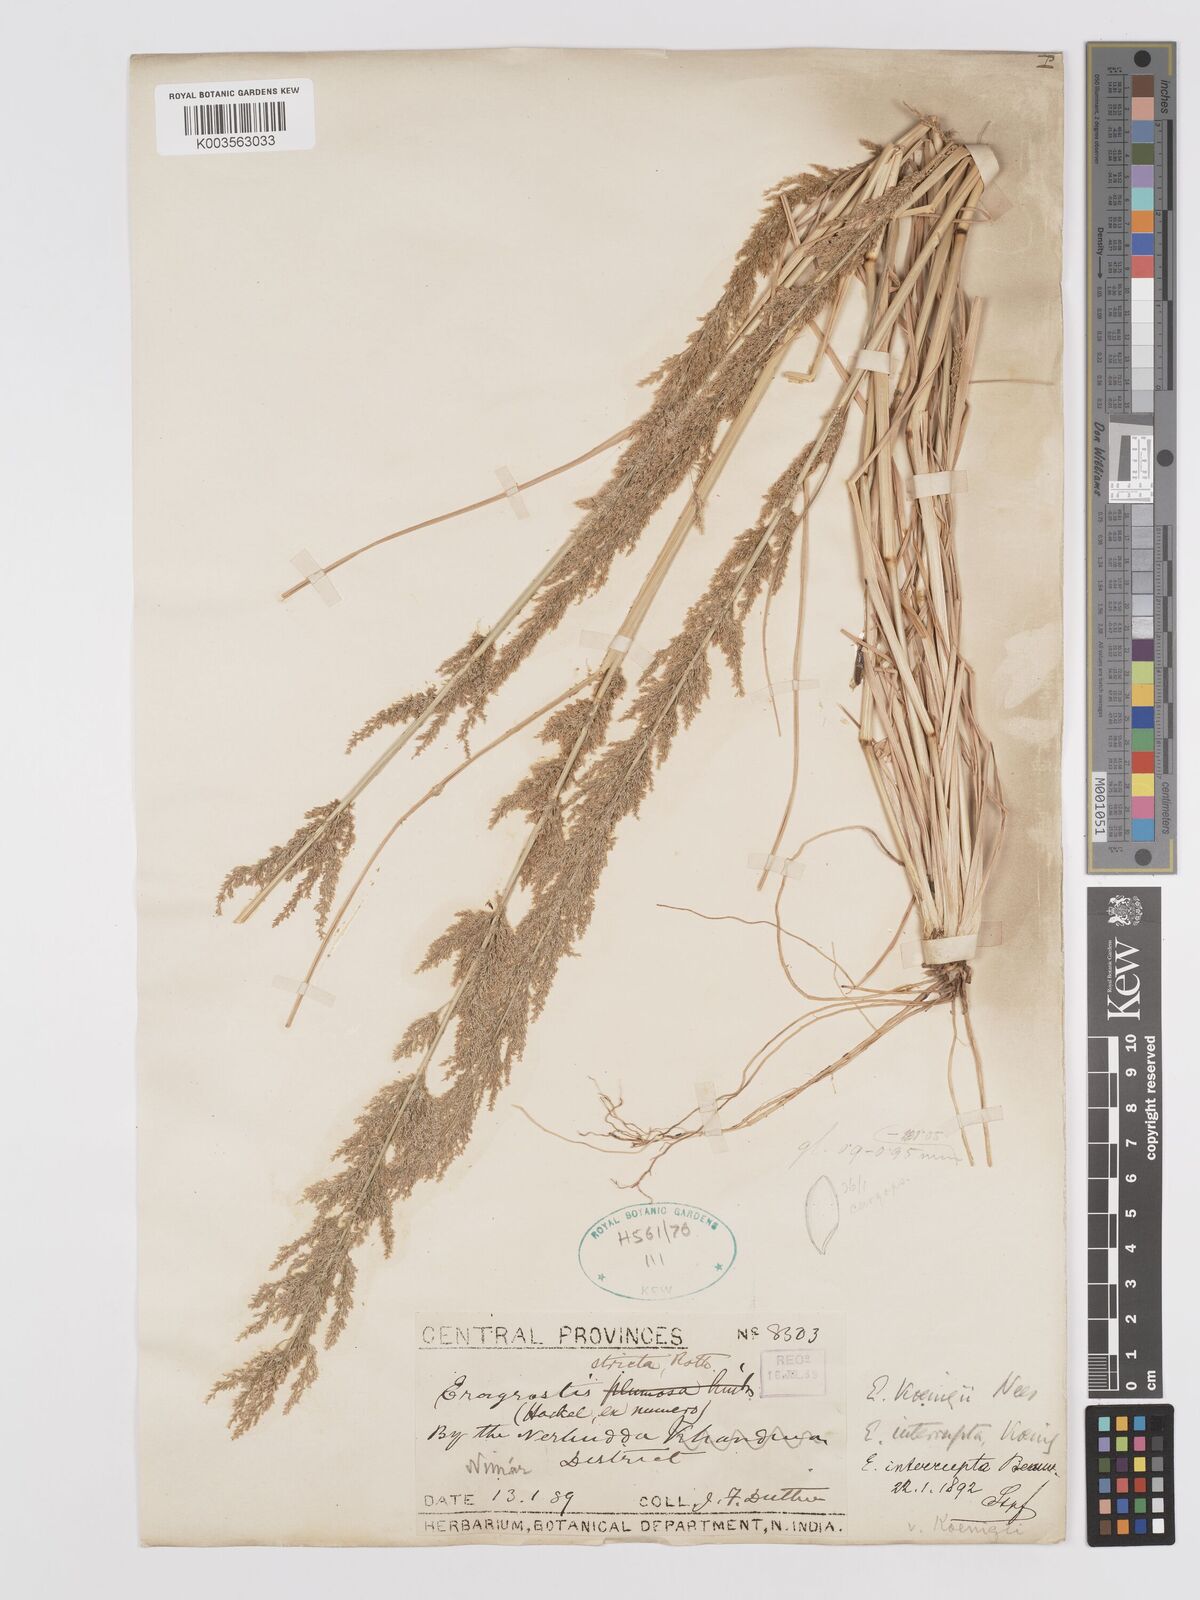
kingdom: Plantae
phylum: Tracheophyta
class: Liliopsida
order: Poales
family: Poaceae
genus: Eragrostis
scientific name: Eragrostis japonica
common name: Pond lovegrass
